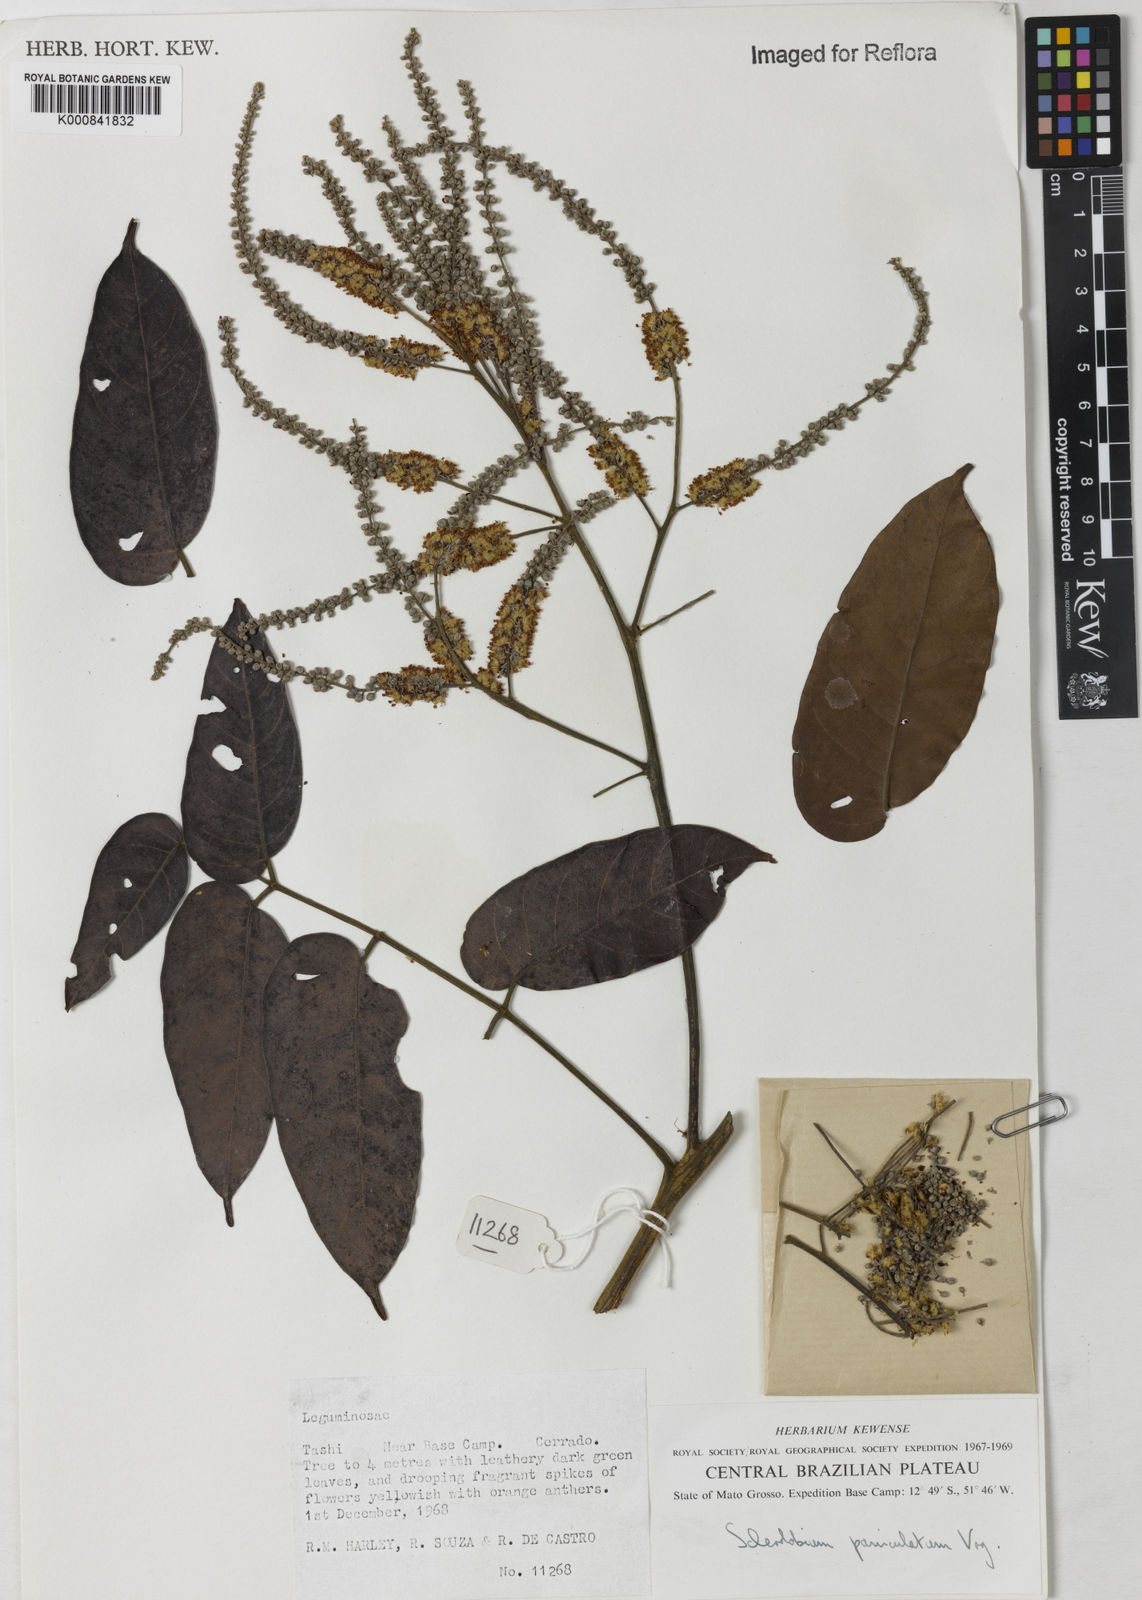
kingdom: Plantae
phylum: Tracheophyta
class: Magnoliopsida
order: Fabales
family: Fabaceae
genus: Tachigali
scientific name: Tachigali vulgaris
